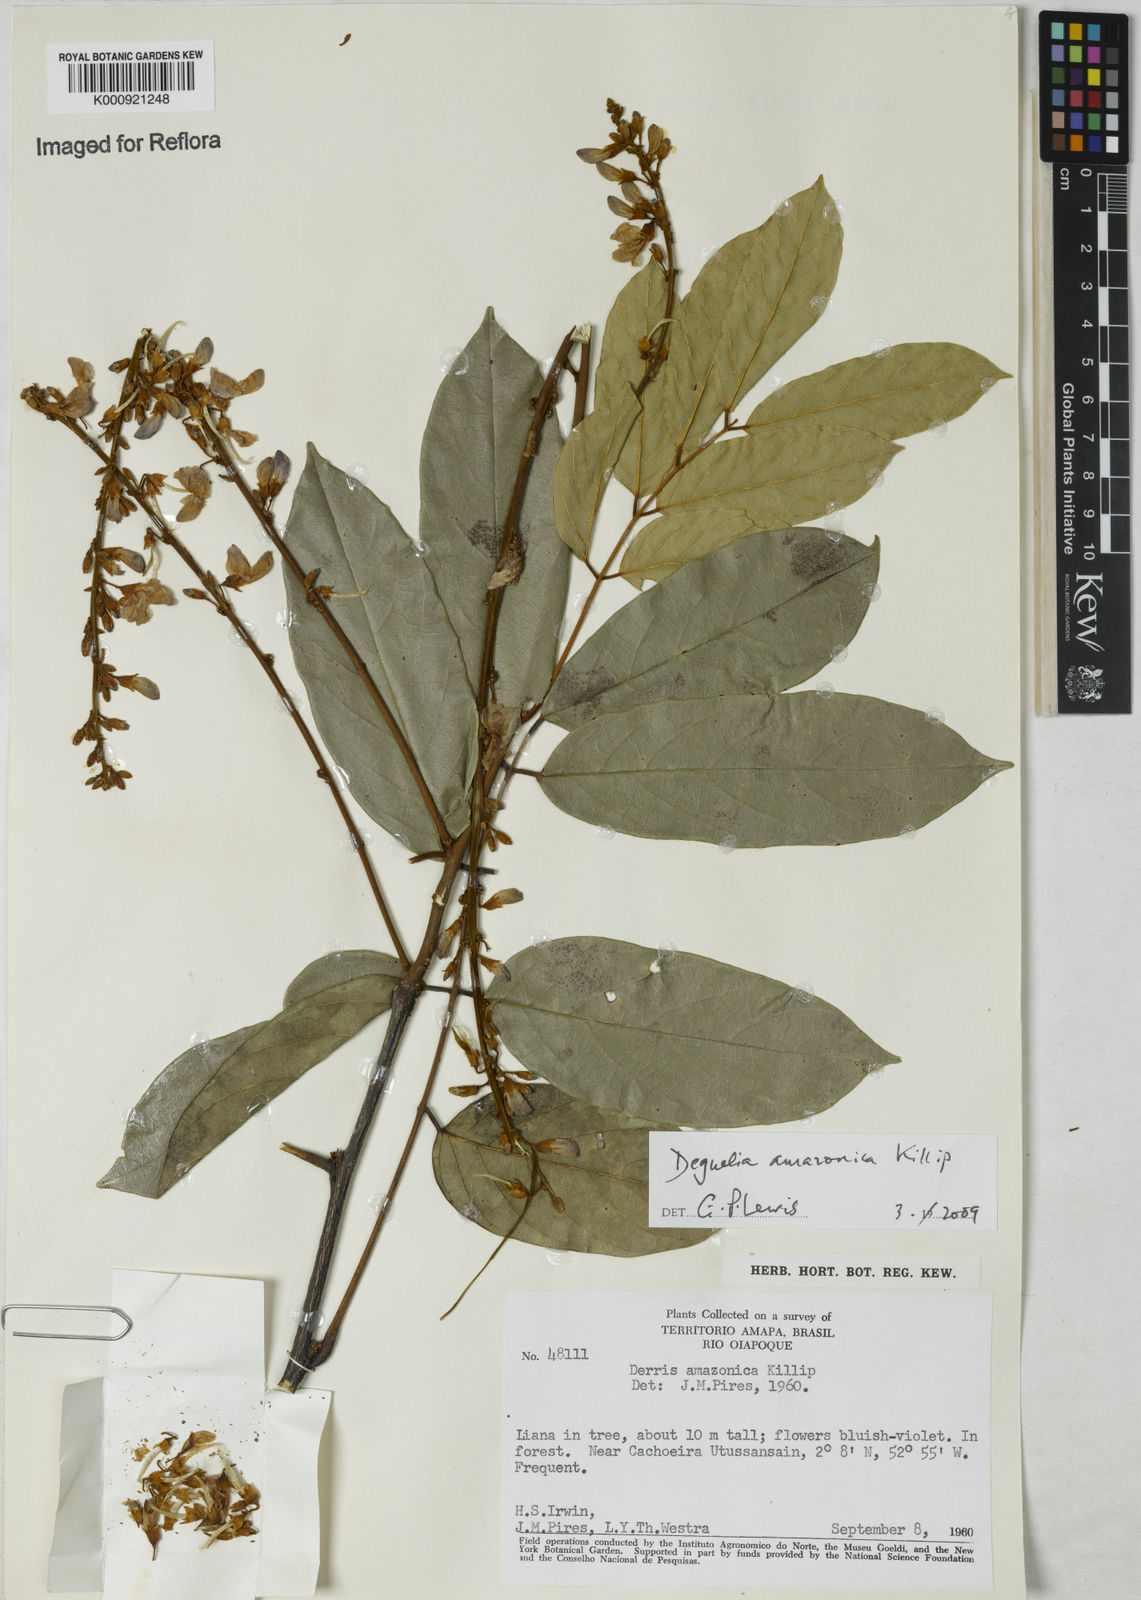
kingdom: Plantae
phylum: Tracheophyta
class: Magnoliopsida
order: Fabales
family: Fabaceae
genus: Deguelia
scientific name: Deguelia amazonica
